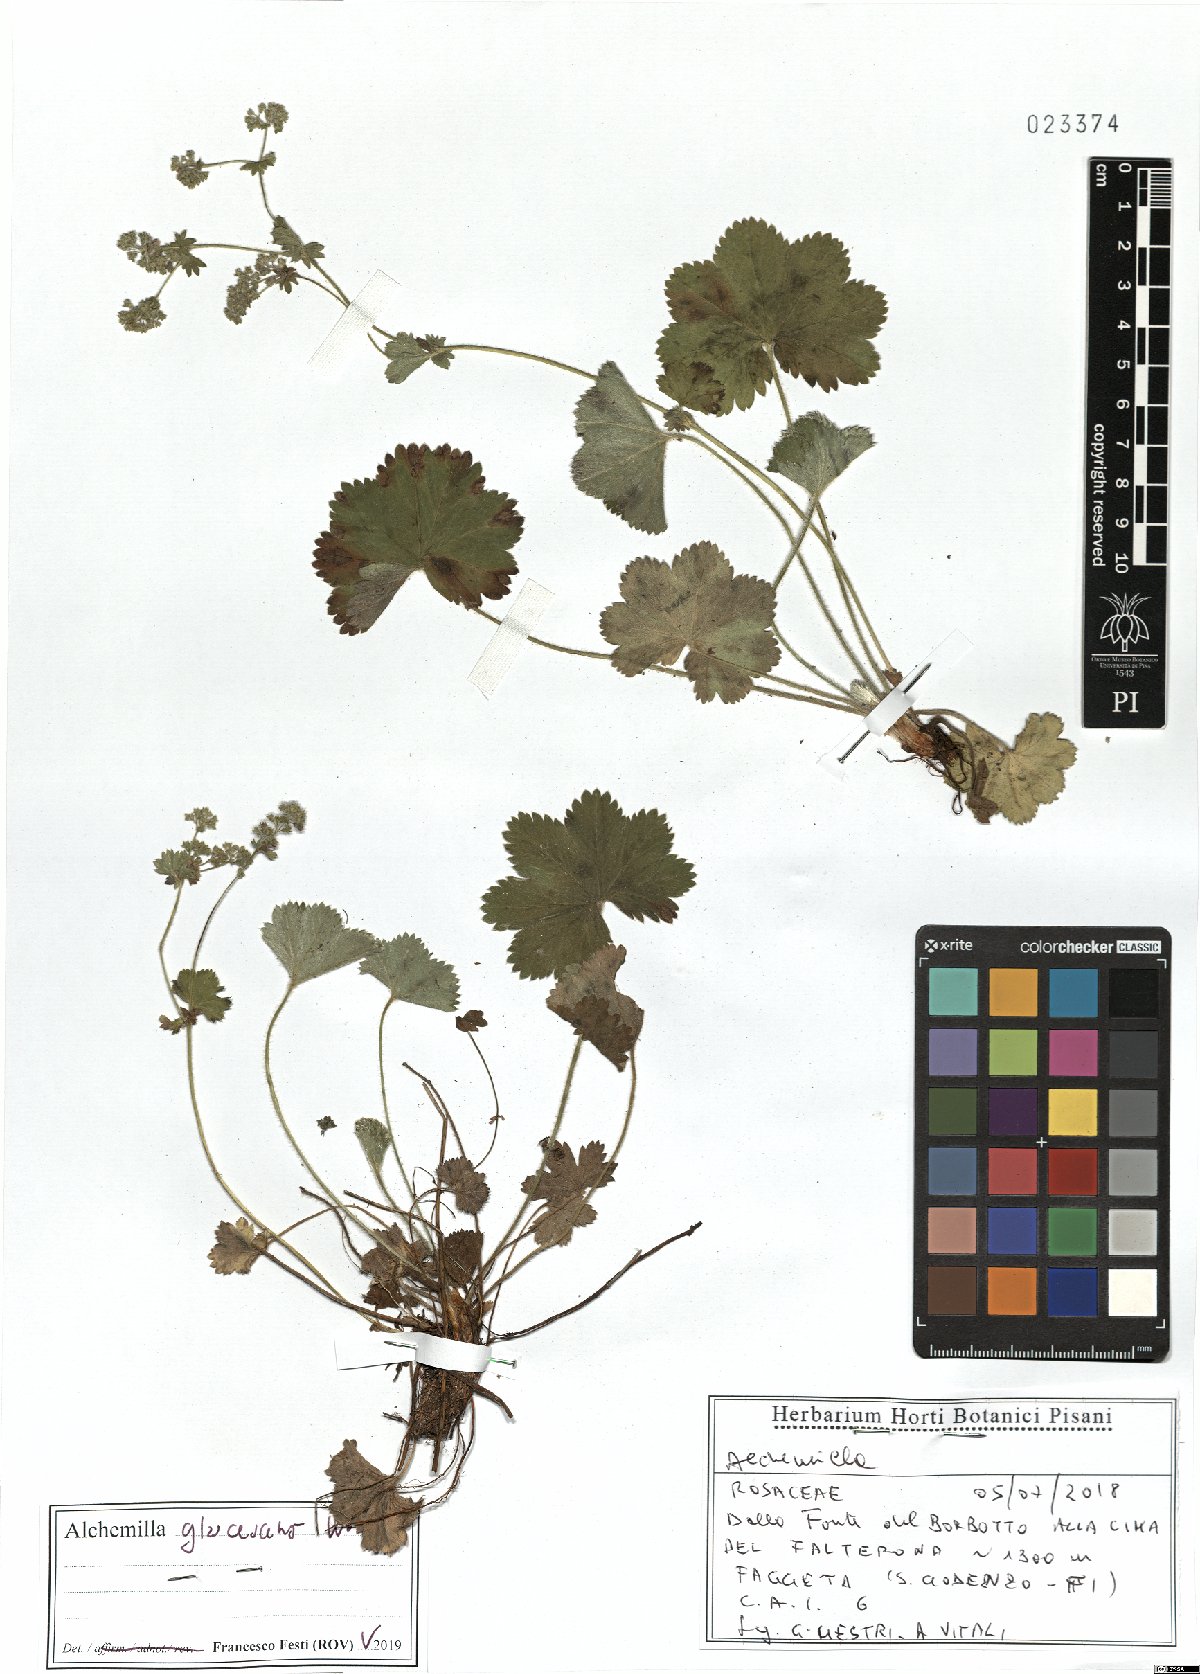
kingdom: Plantae
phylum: Tracheophyta
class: Magnoliopsida
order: Rosales
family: Rosaceae
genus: Alchemilla
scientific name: Alchemilla glaucescens
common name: Silky lady's mantle
